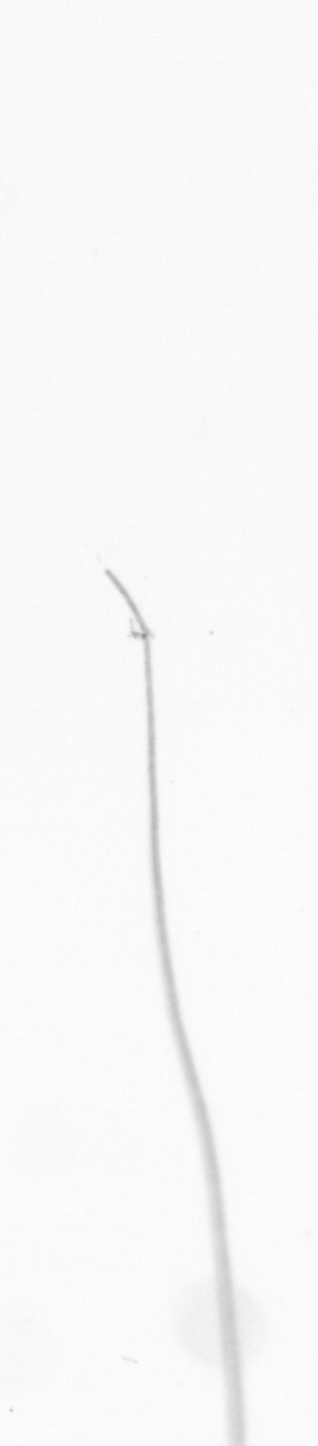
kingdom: Chromista
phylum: Ochrophyta
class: Bacillariophyceae
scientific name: Bacillariophyceae
